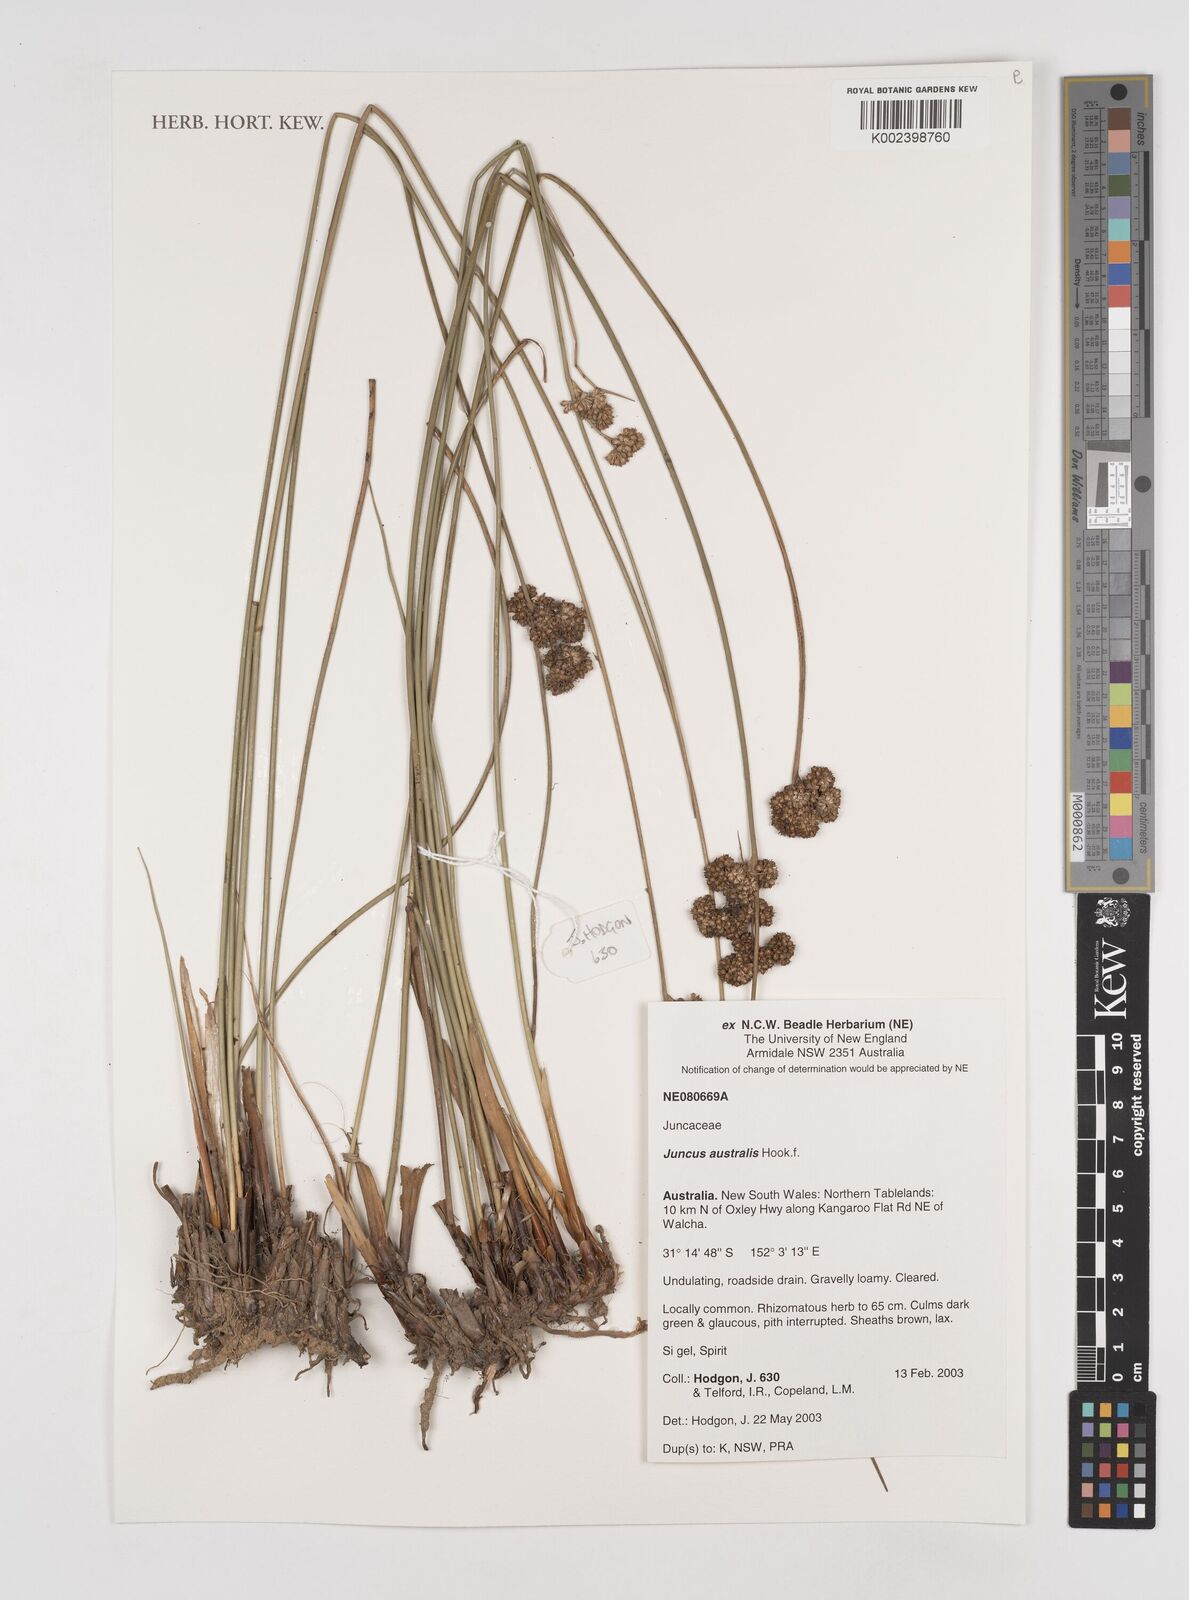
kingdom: Plantae
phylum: Tracheophyta
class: Liliopsida
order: Poales
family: Juncaceae
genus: Juncus
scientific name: Juncus australis
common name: Austral rush
